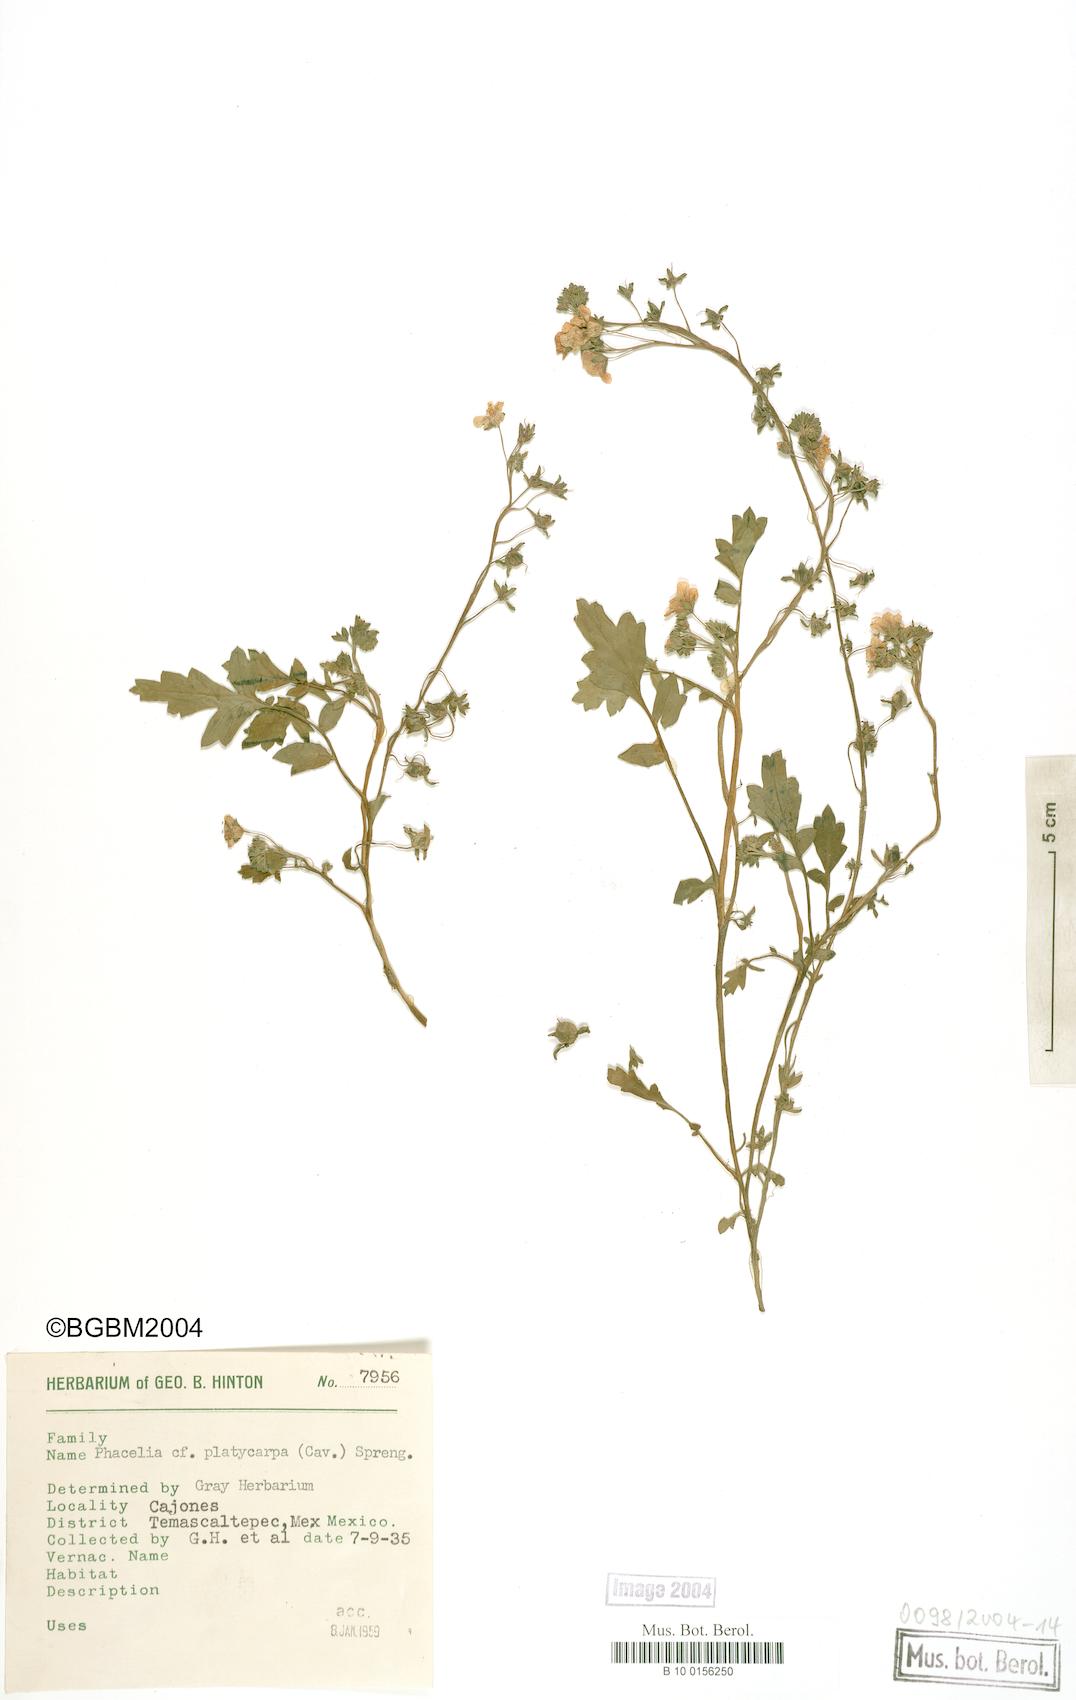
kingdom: Plantae
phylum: Tracheophyta
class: Magnoliopsida
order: Boraginales
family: Hydrophyllaceae
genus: Phacelia
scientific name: Phacelia platycarpa
